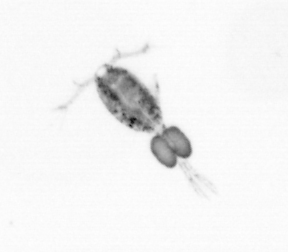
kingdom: Animalia
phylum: Arthropoda
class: Copepoda
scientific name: Copepoda
